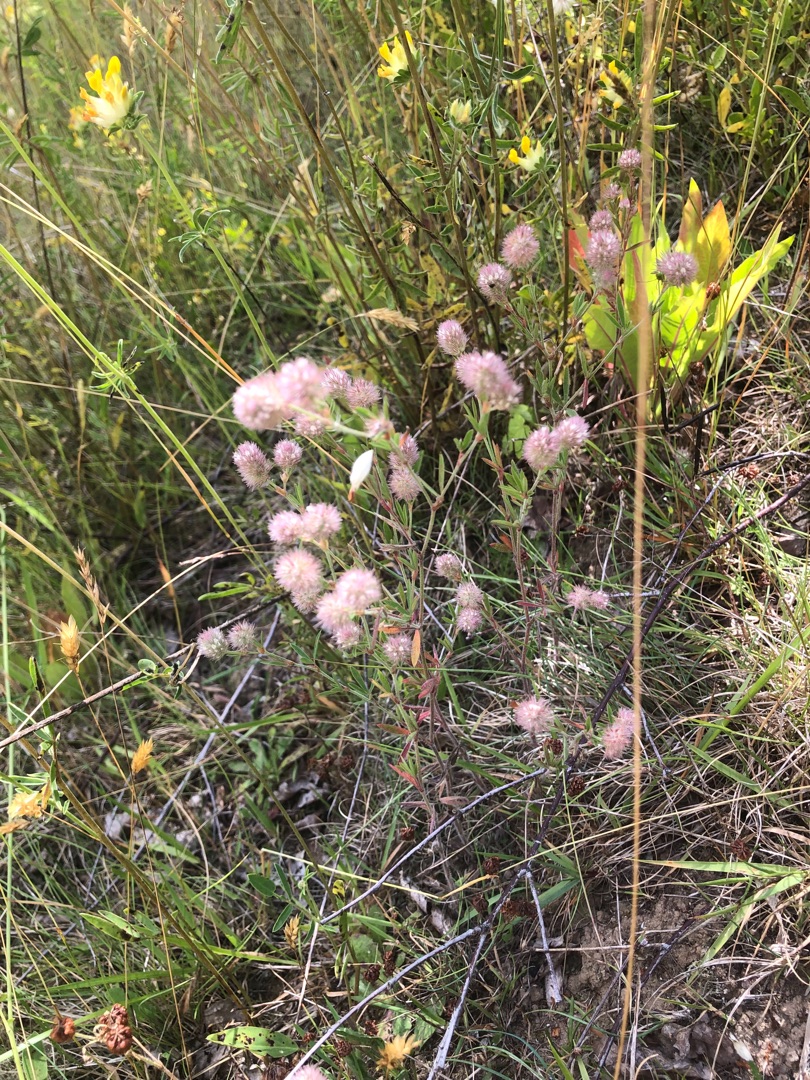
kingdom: Plantae
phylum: Tracheophyta
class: Magnoliopsida
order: Fabales
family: Fabaceae
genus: Trifolium
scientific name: Trifolium arvense
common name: Hare-kløver
